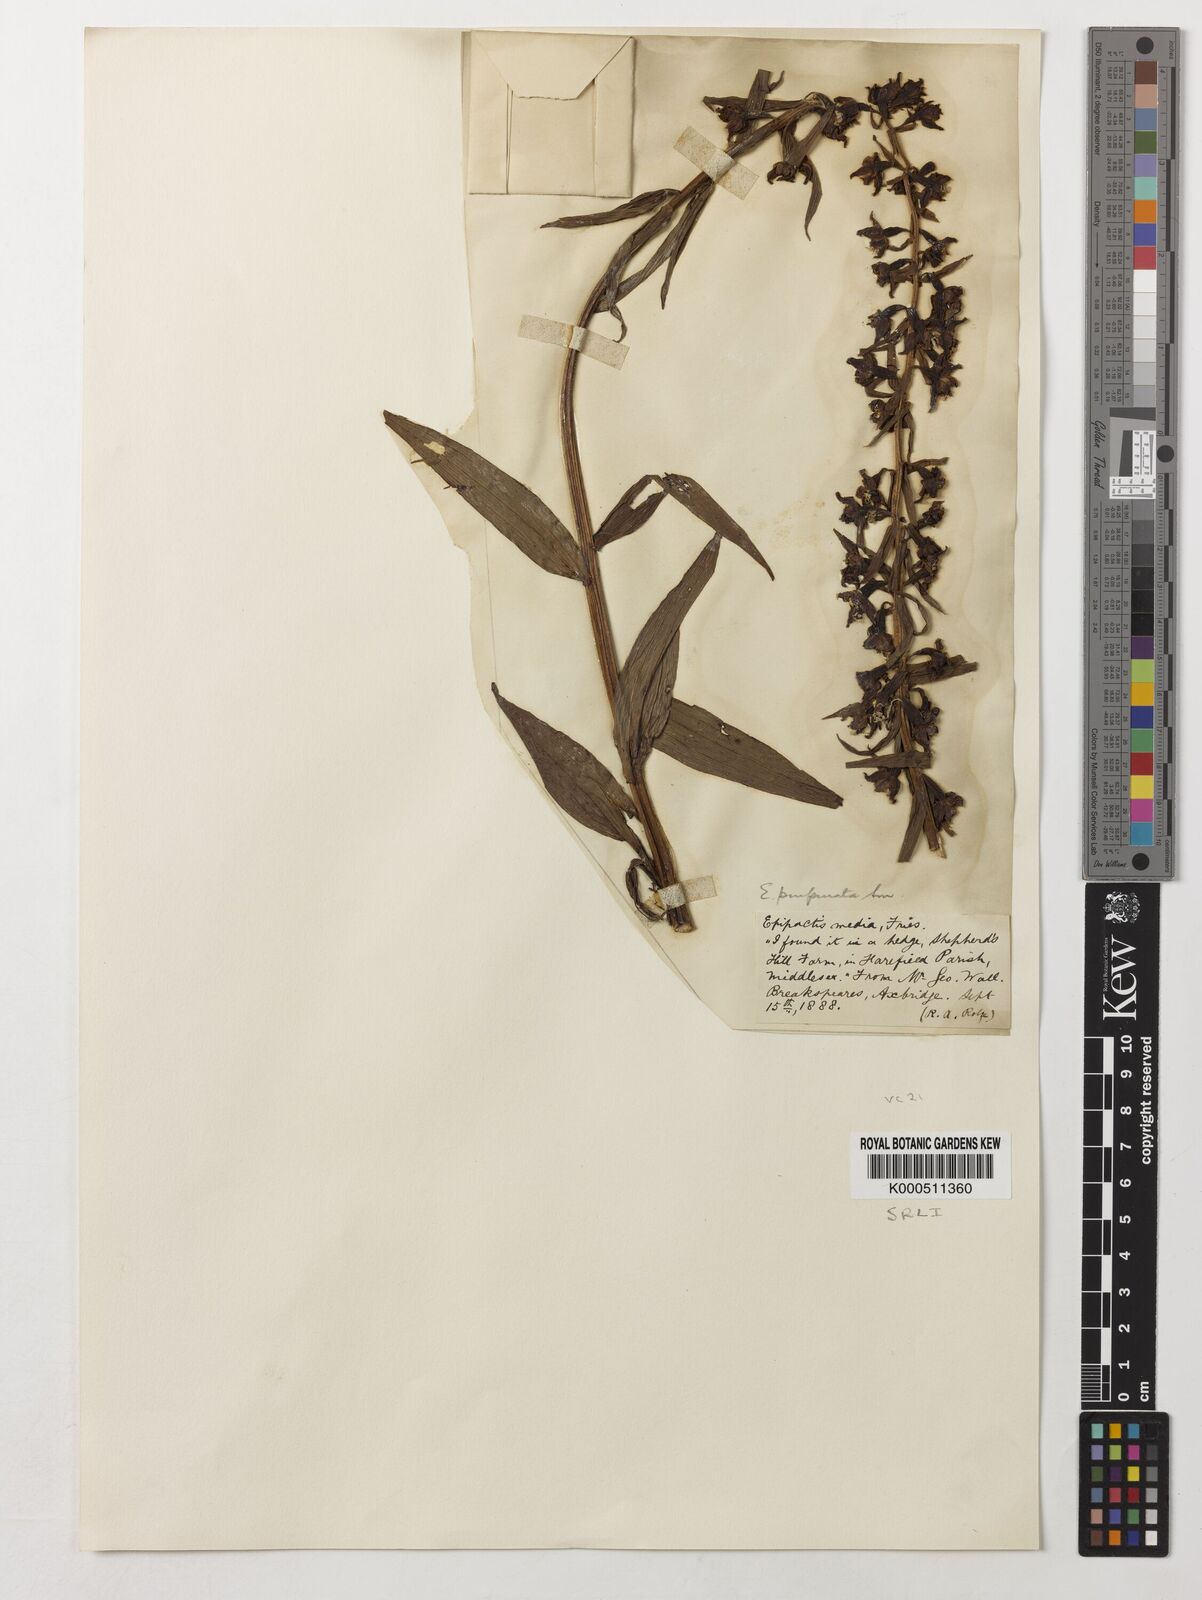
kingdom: Plantae
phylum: Tracheophyta
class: Liliopsida
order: Asparagales
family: Orchidaceae
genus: Epipactis
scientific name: Epipactis purpurata
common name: Violet helleborine
